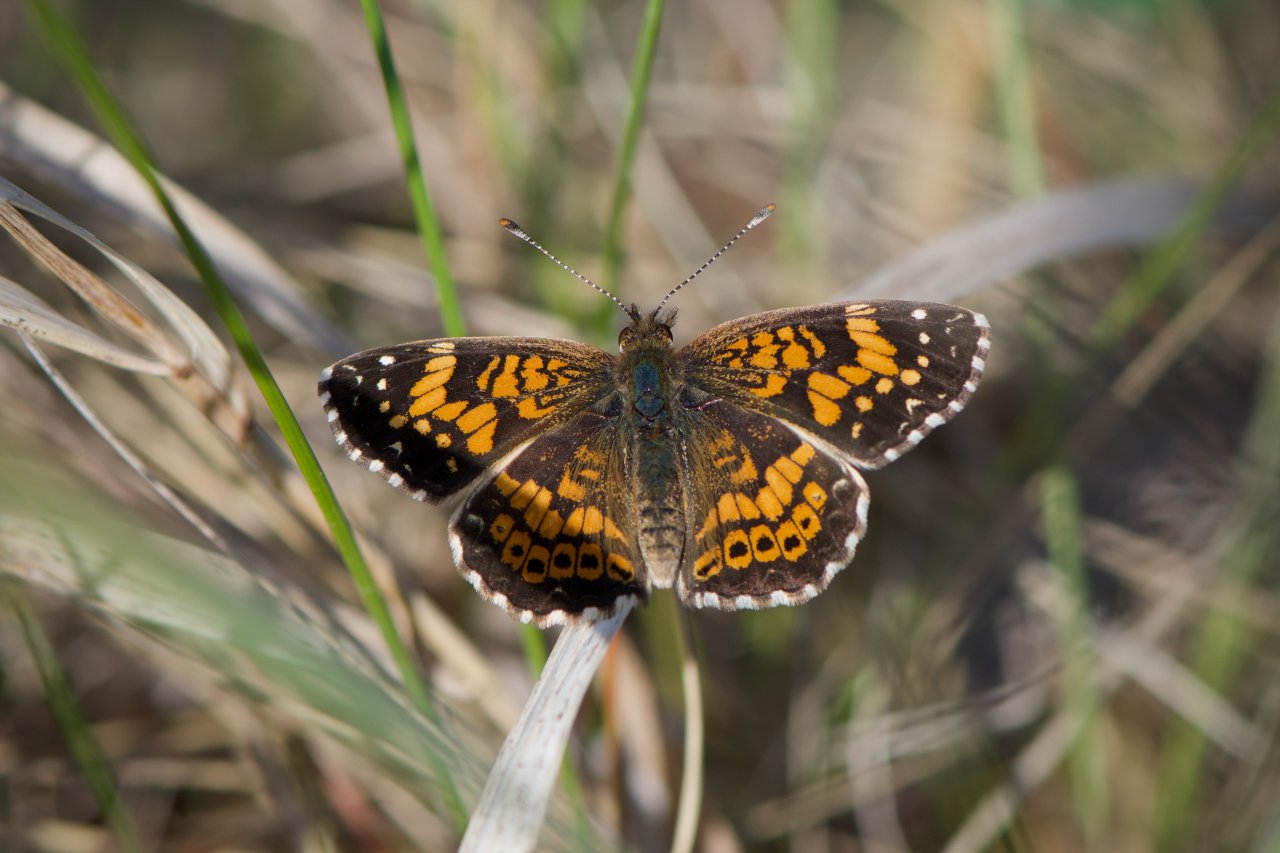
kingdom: Animalia
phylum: Arthropoda
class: Insecta
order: Lepidoptera
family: Nymphalidae
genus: Chlosyne
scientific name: Chlosyne gorgone
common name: Gorgone Checkerspot
